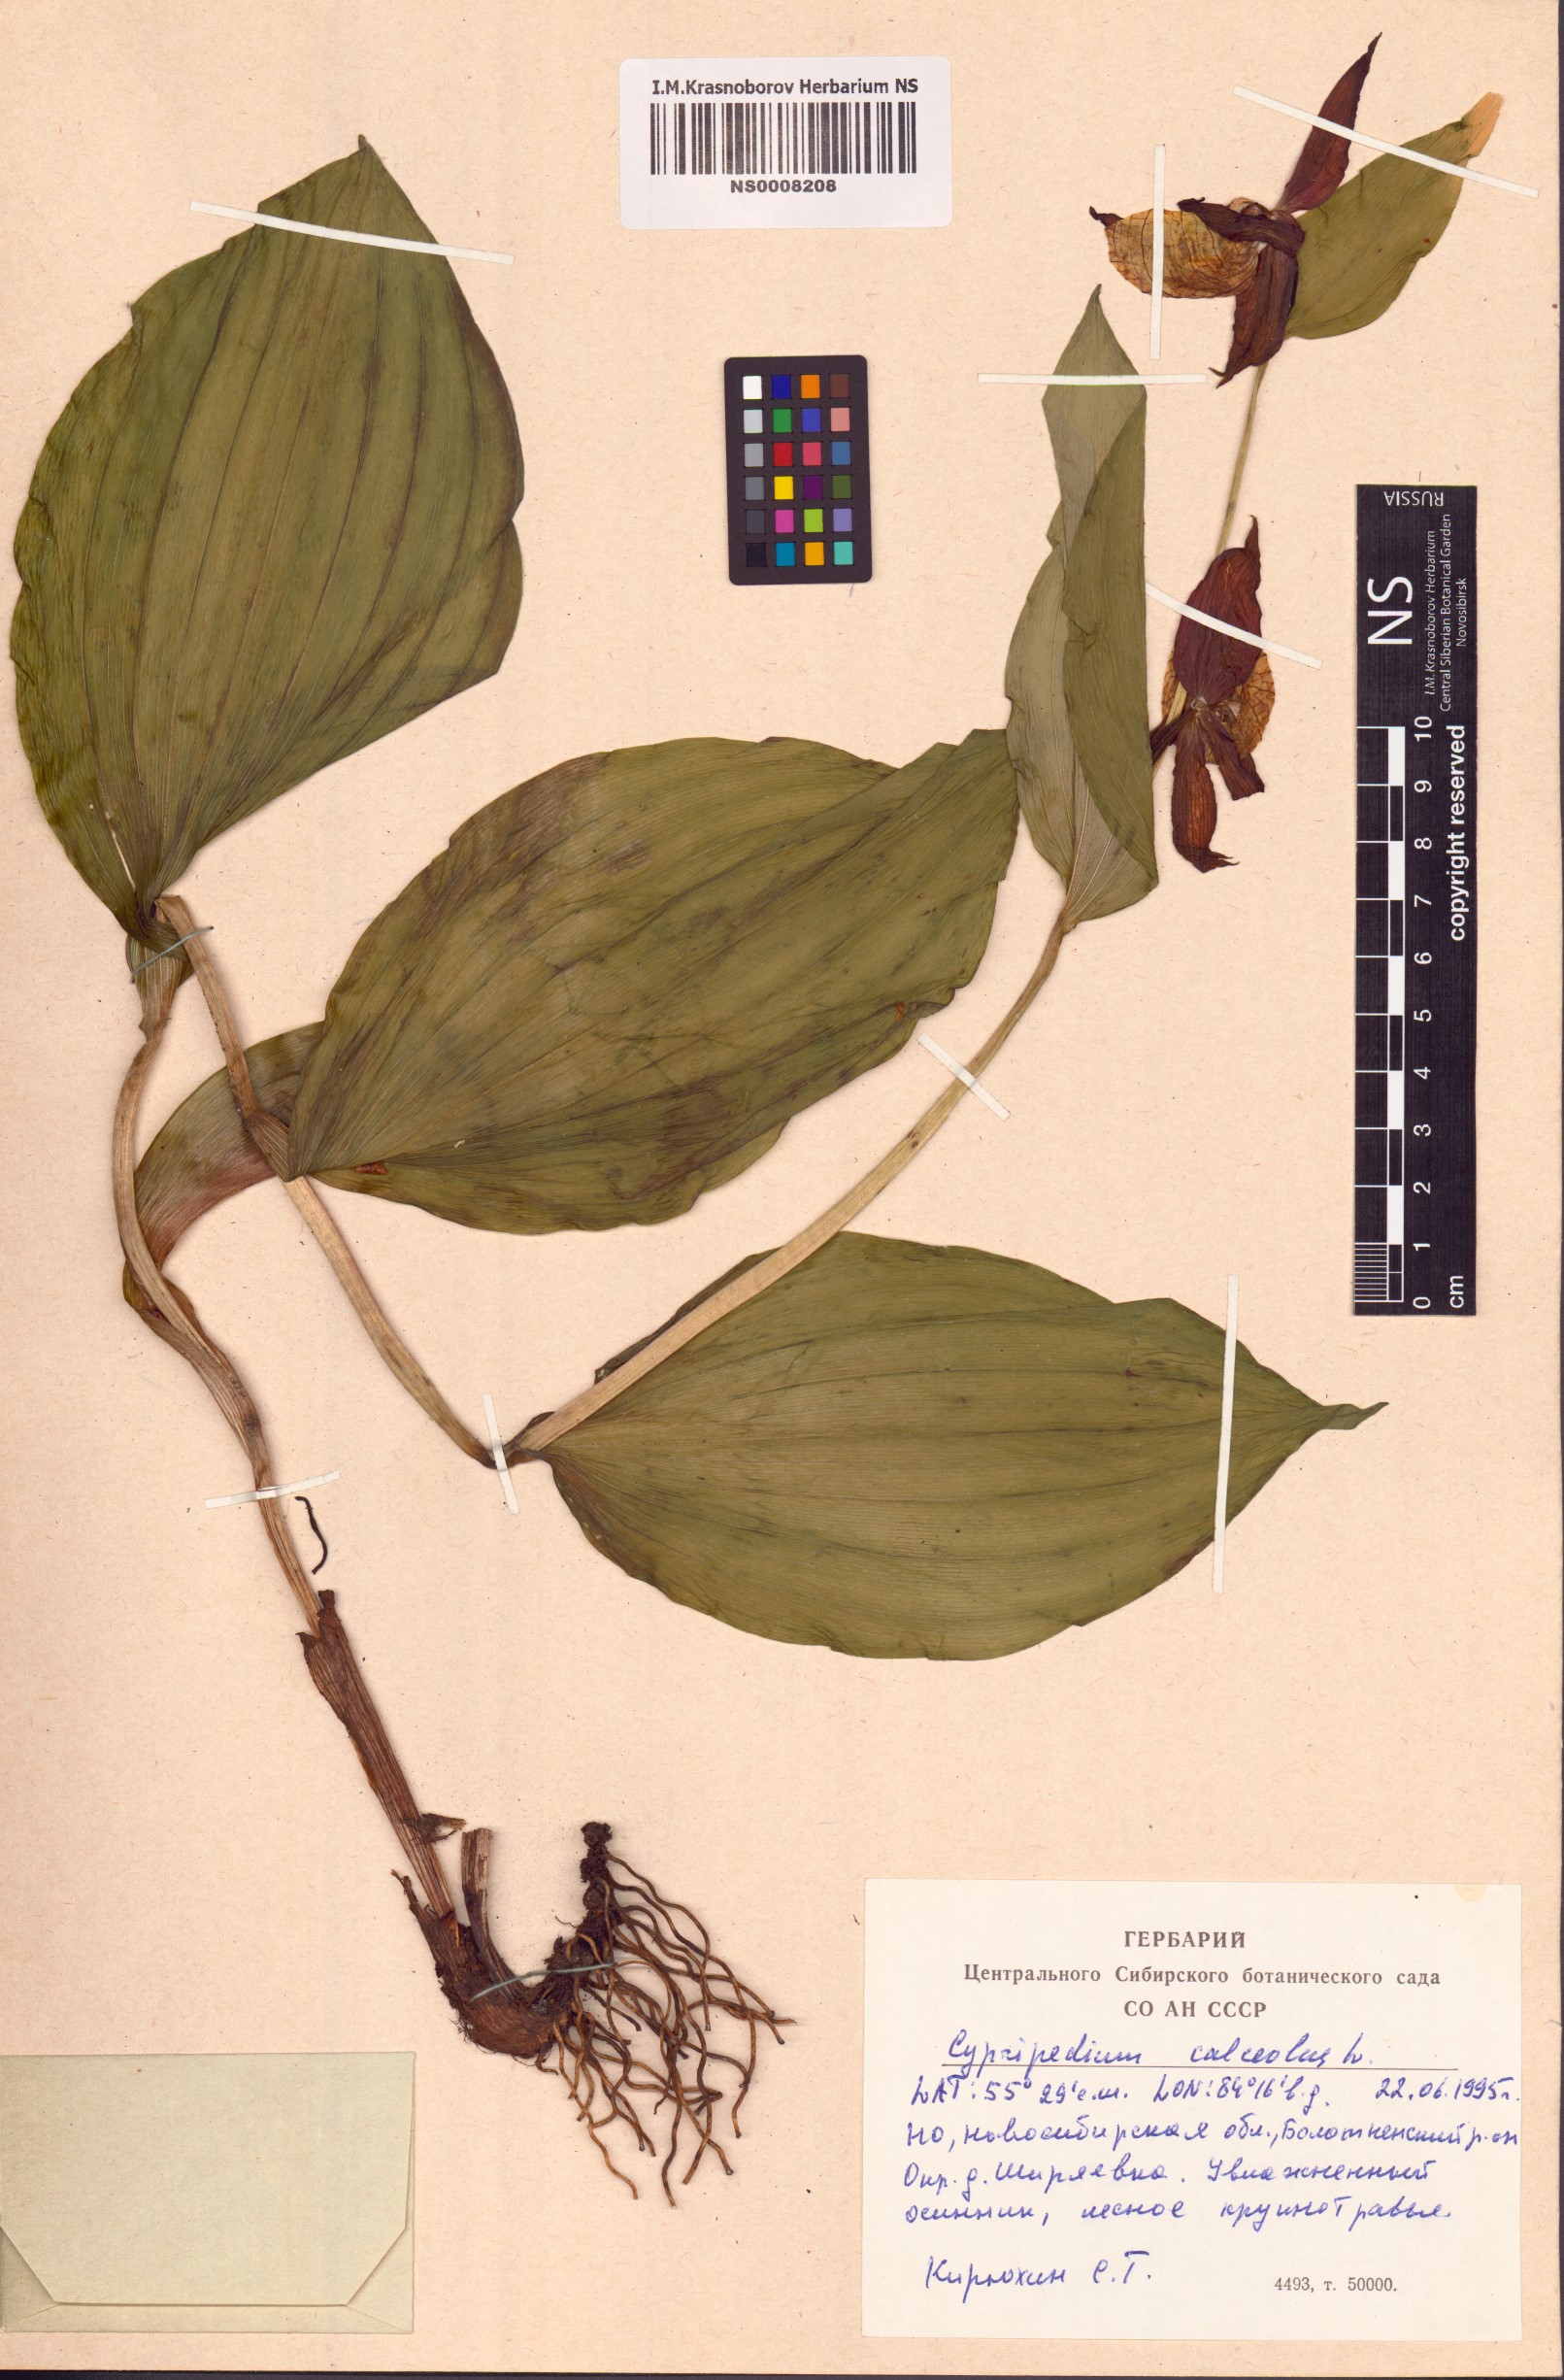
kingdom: Plantae
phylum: Tracheophyta
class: Liliopsida
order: Asparagales
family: Orchidaceae
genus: Cypripedium
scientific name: Cypripedium calceolus
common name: Lady's-slipper
